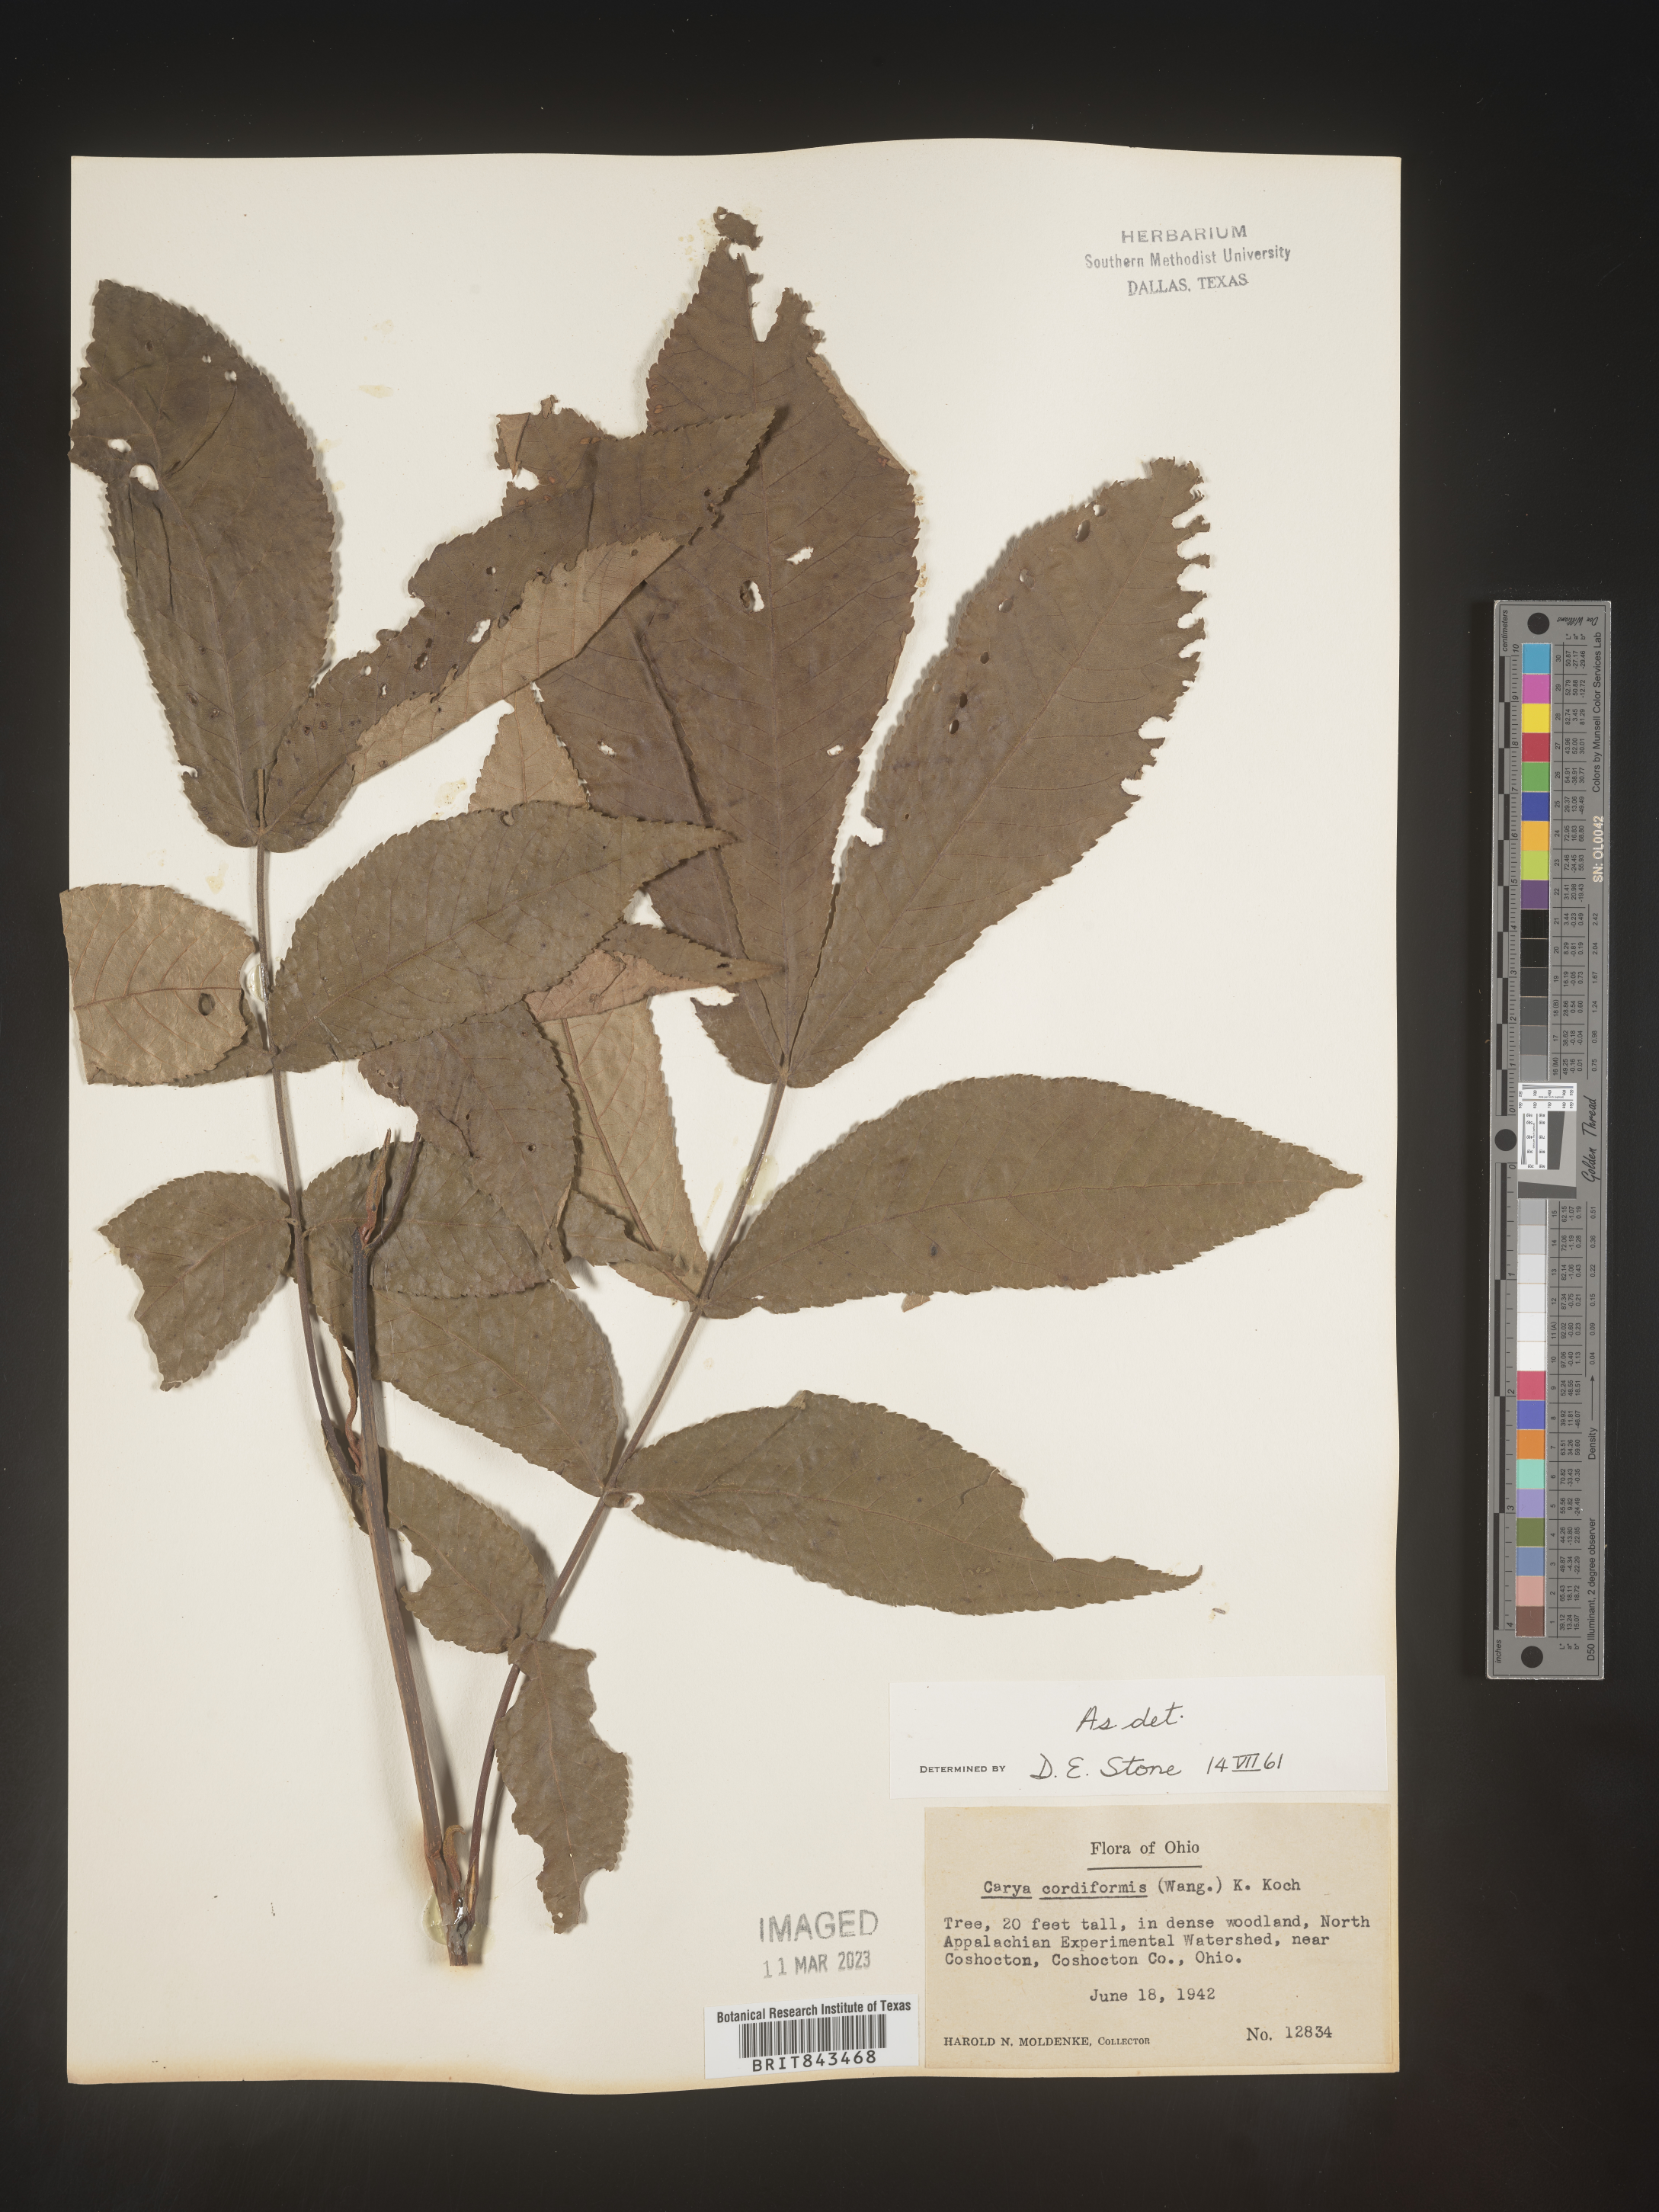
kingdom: Plantae
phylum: Tracheophyta
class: Magnoliopsida
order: Fagales
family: Juglandaceae
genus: Carya
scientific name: Carya cordiformis
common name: Bitternut hickory
